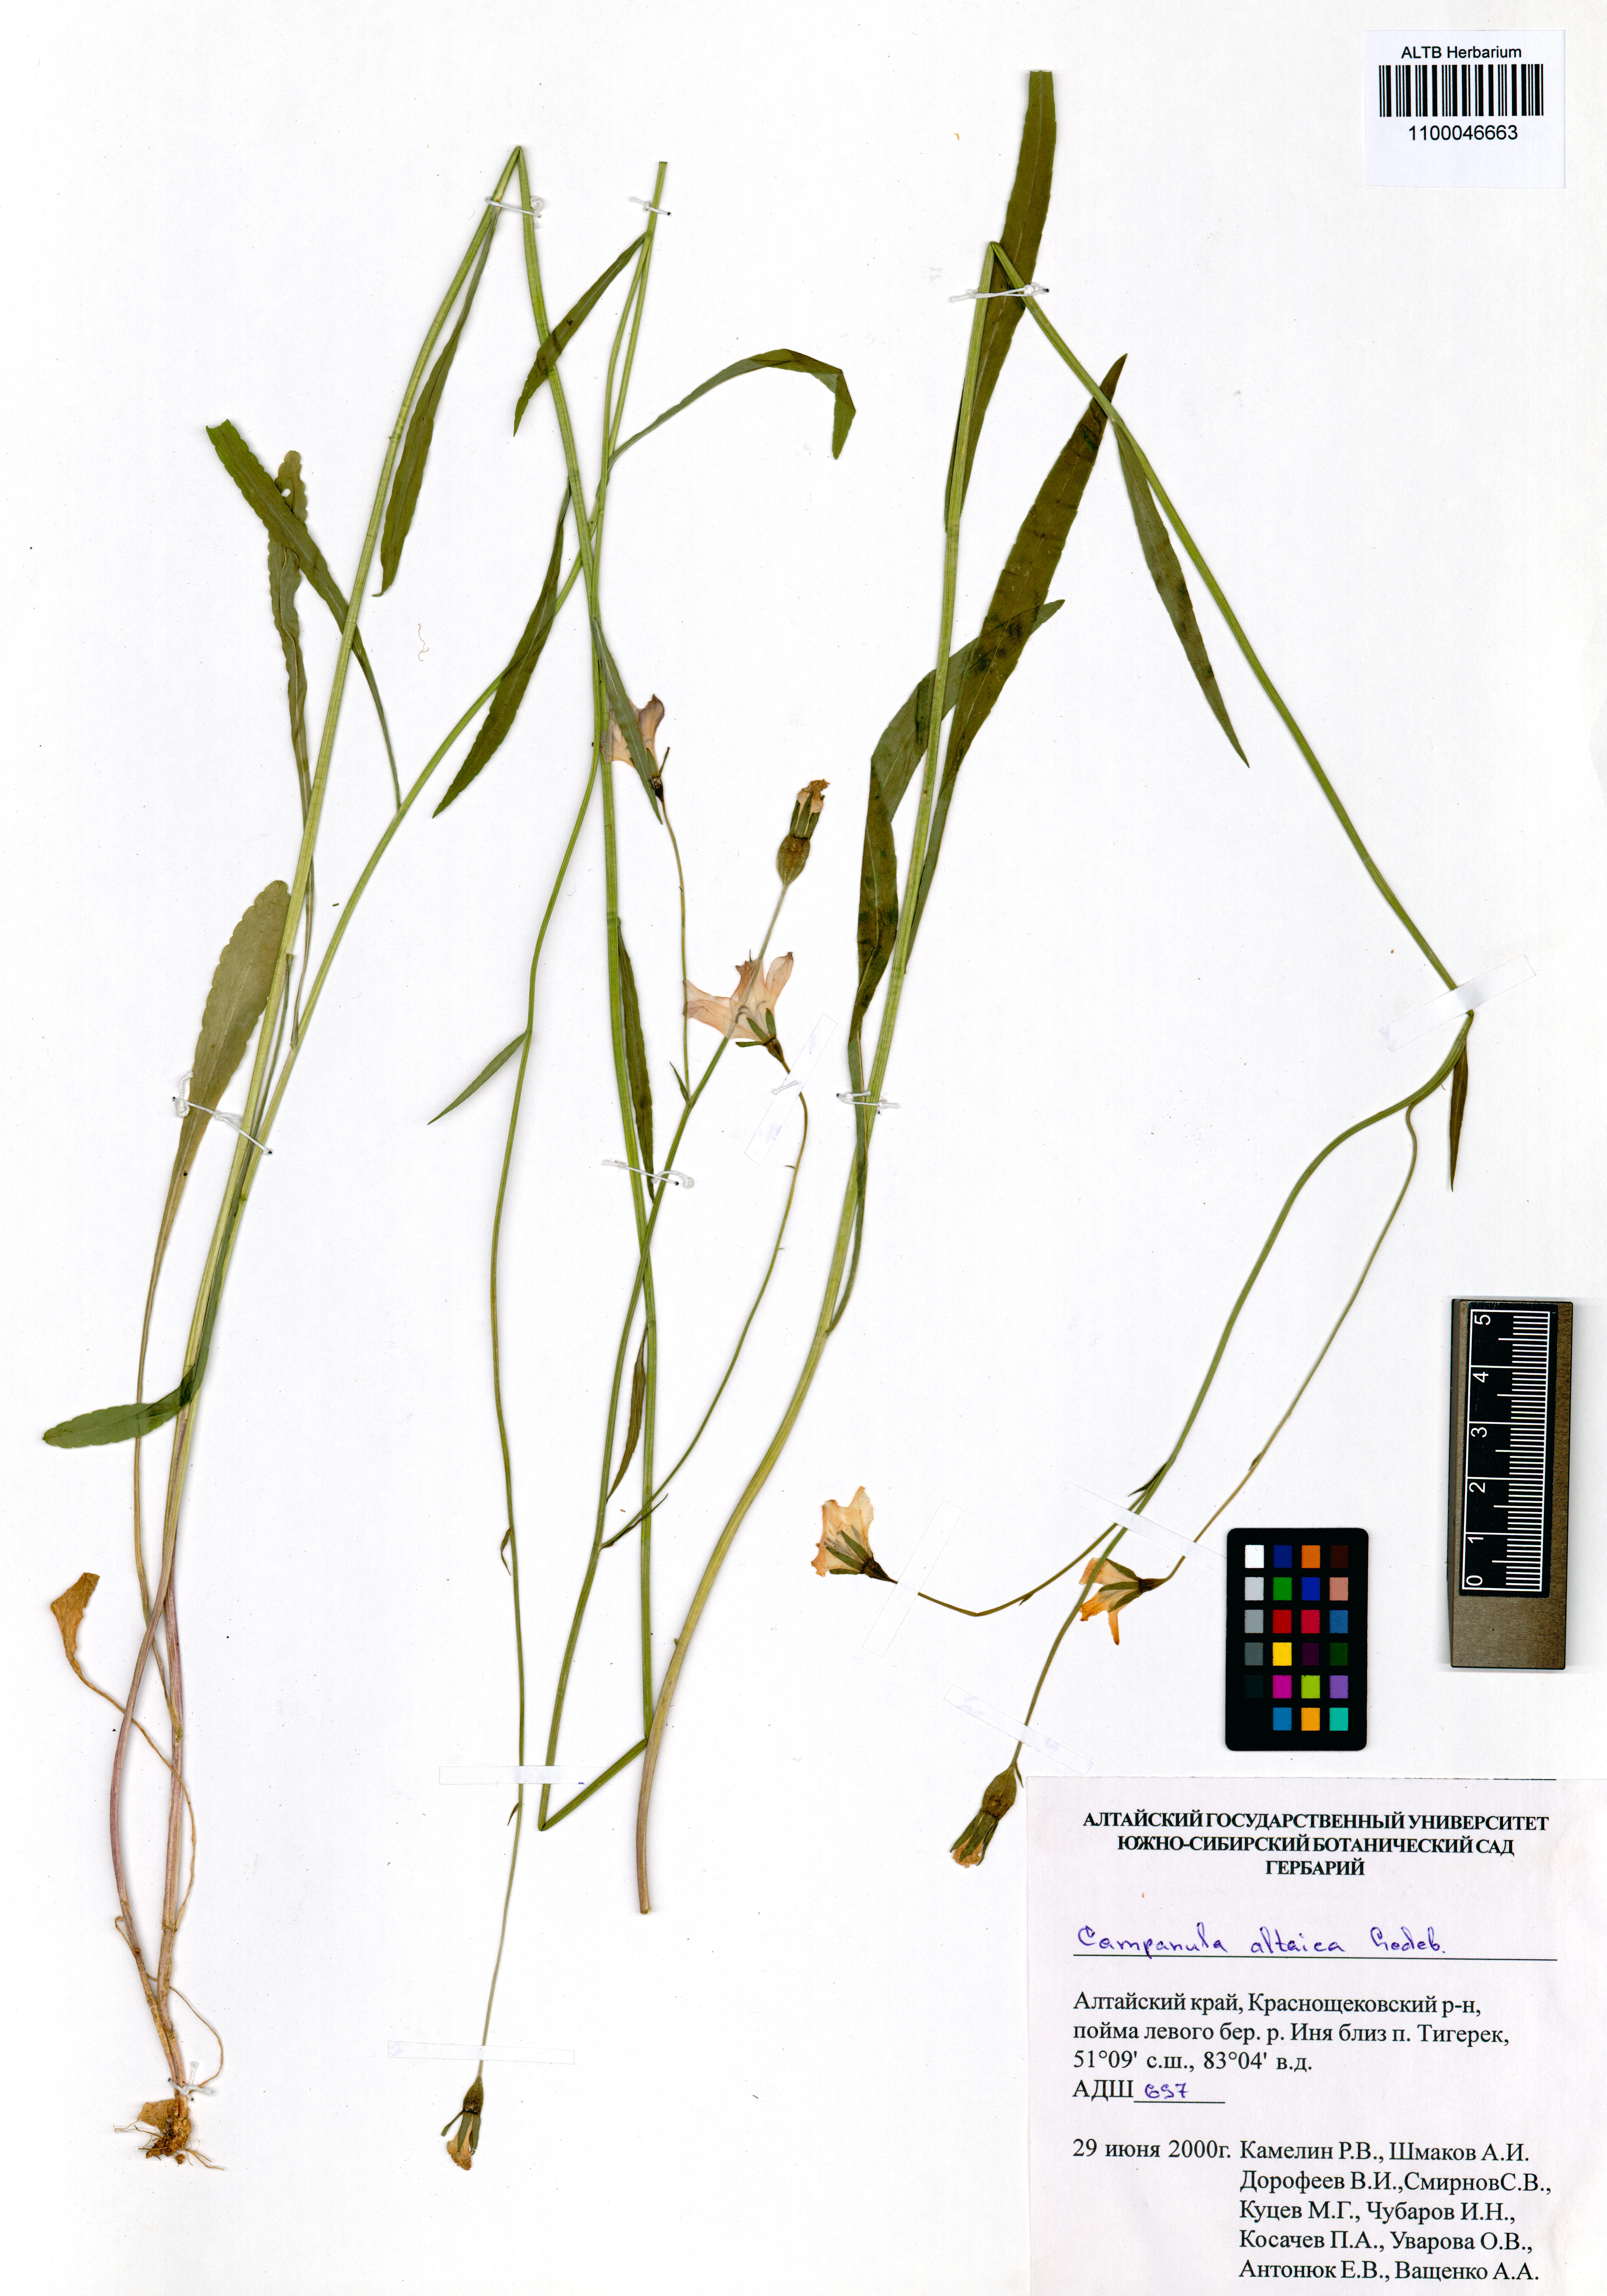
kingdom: Plantae
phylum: Tracheophyta
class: Magnoliopsida
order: Asterales
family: Campanulaceae
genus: Campanula
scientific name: Campanula stevenii
